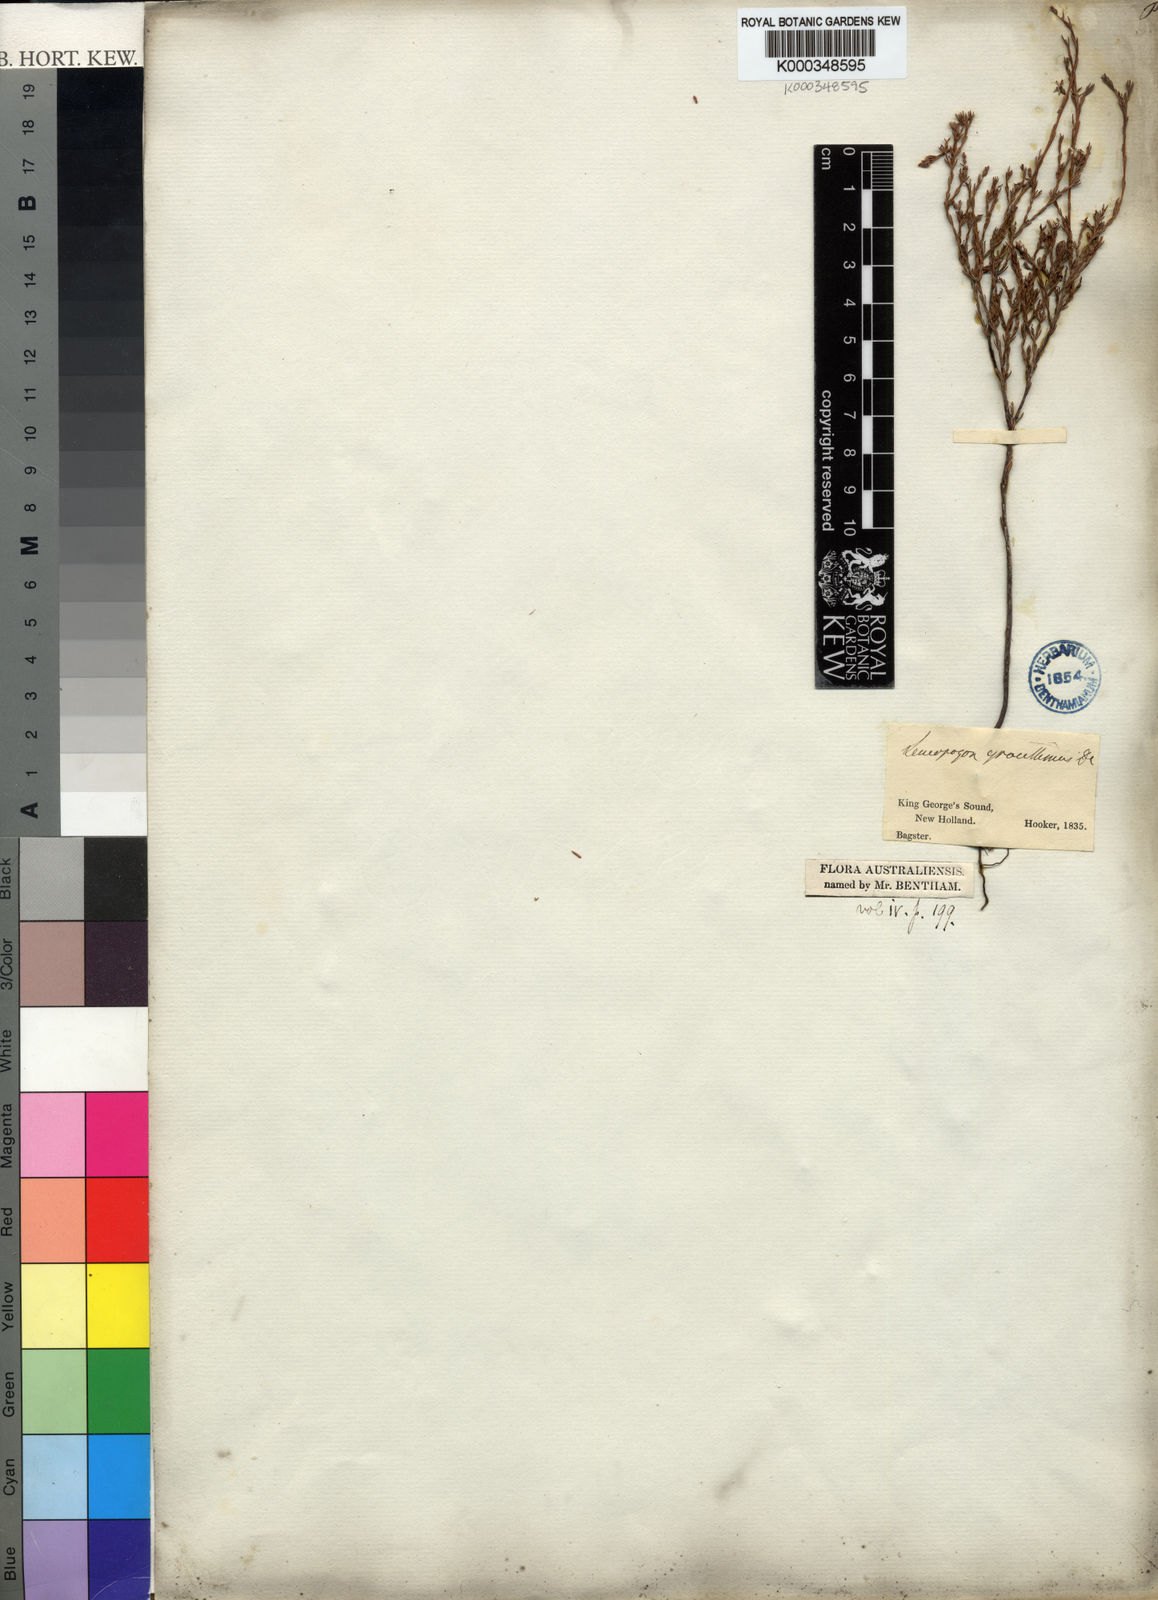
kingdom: Plantae
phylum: Tracheophyta
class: Magnoliopsida
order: Ericales
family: Ericaceae
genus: Leucopogon
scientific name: Leucopogon gracillimus
